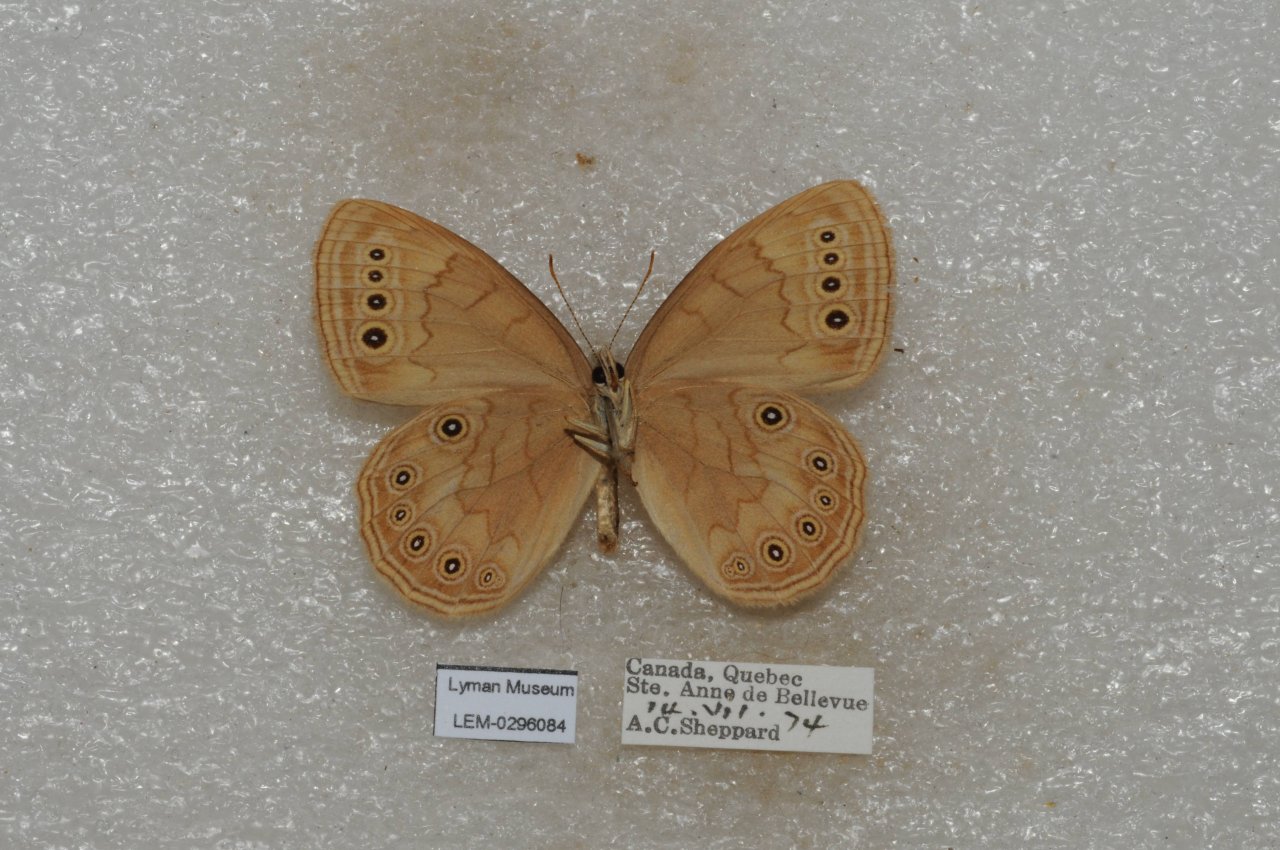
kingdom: Animalia
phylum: Arthropoda
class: Insecta
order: Lepidoptera
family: Nymphalidae
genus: Lethe
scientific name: Lethe eurydice
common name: Eyed Brown
